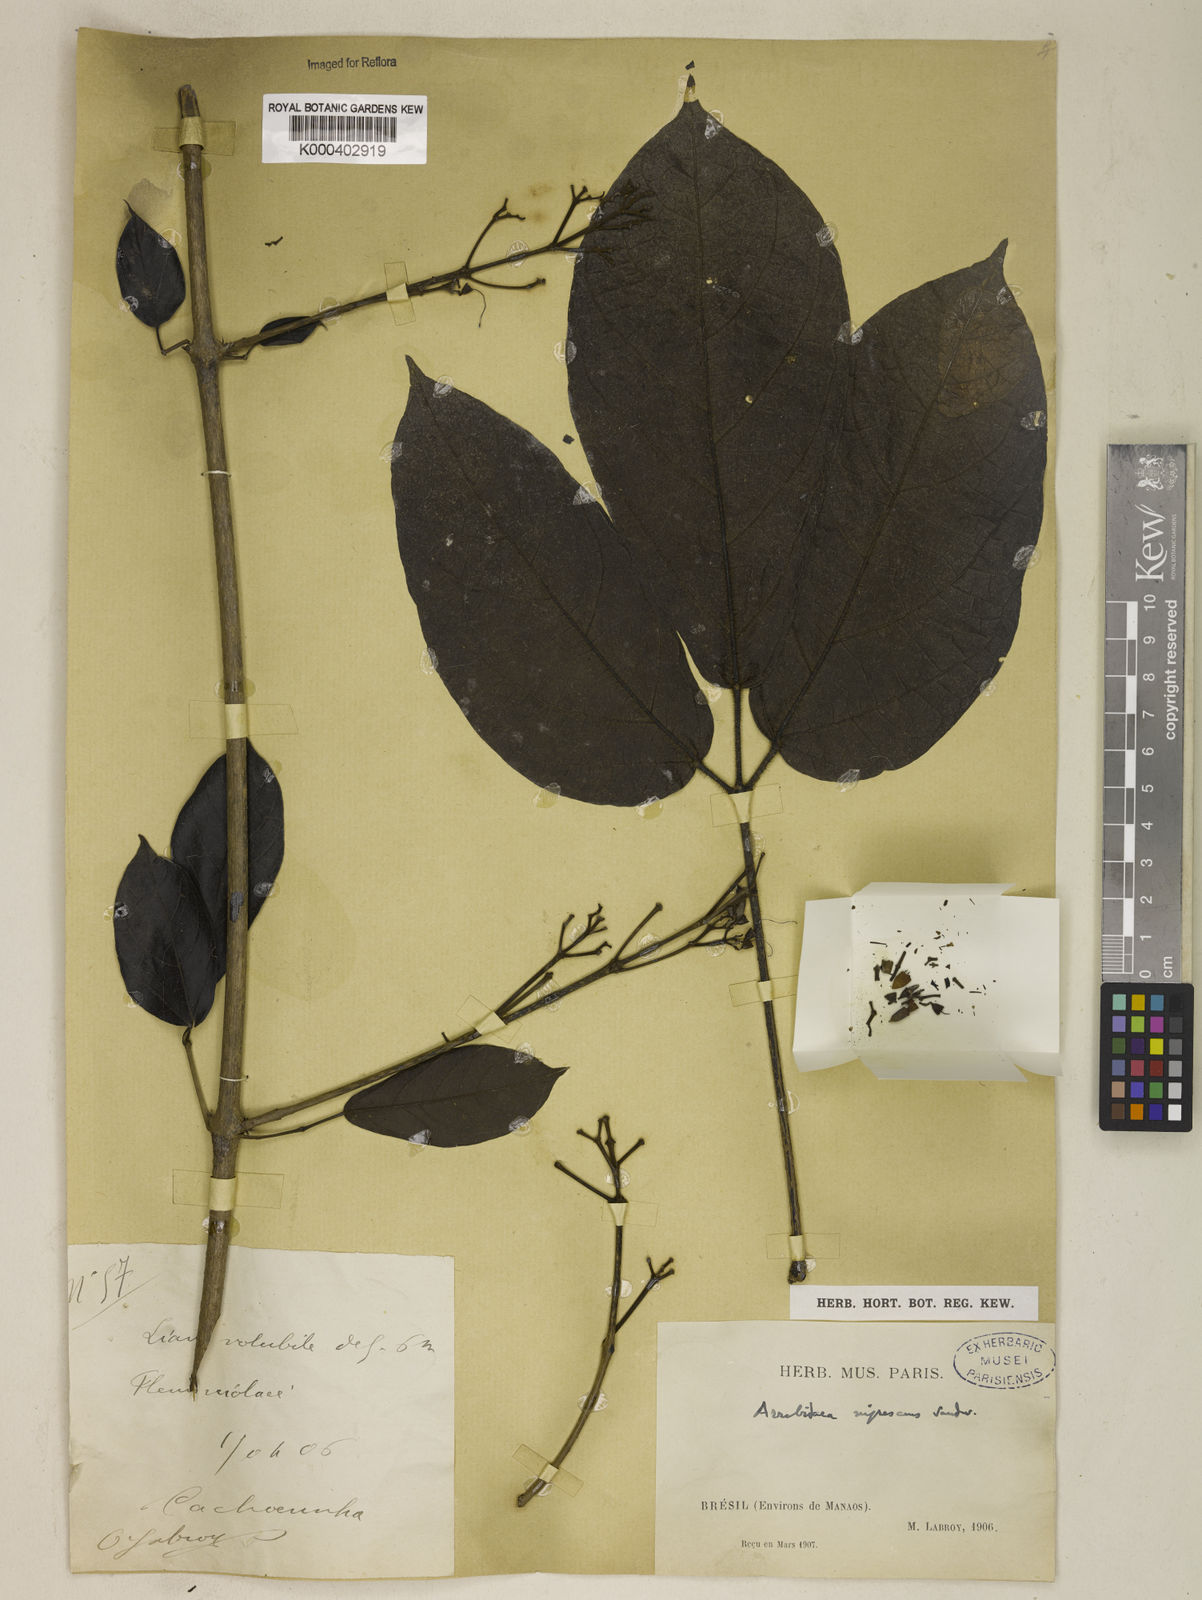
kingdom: Plantae
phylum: Tracheophyta
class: Magnoliopsida
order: Lamiales
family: Bignoniaceae
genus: Fridericia
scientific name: Fridericia nigrescens
